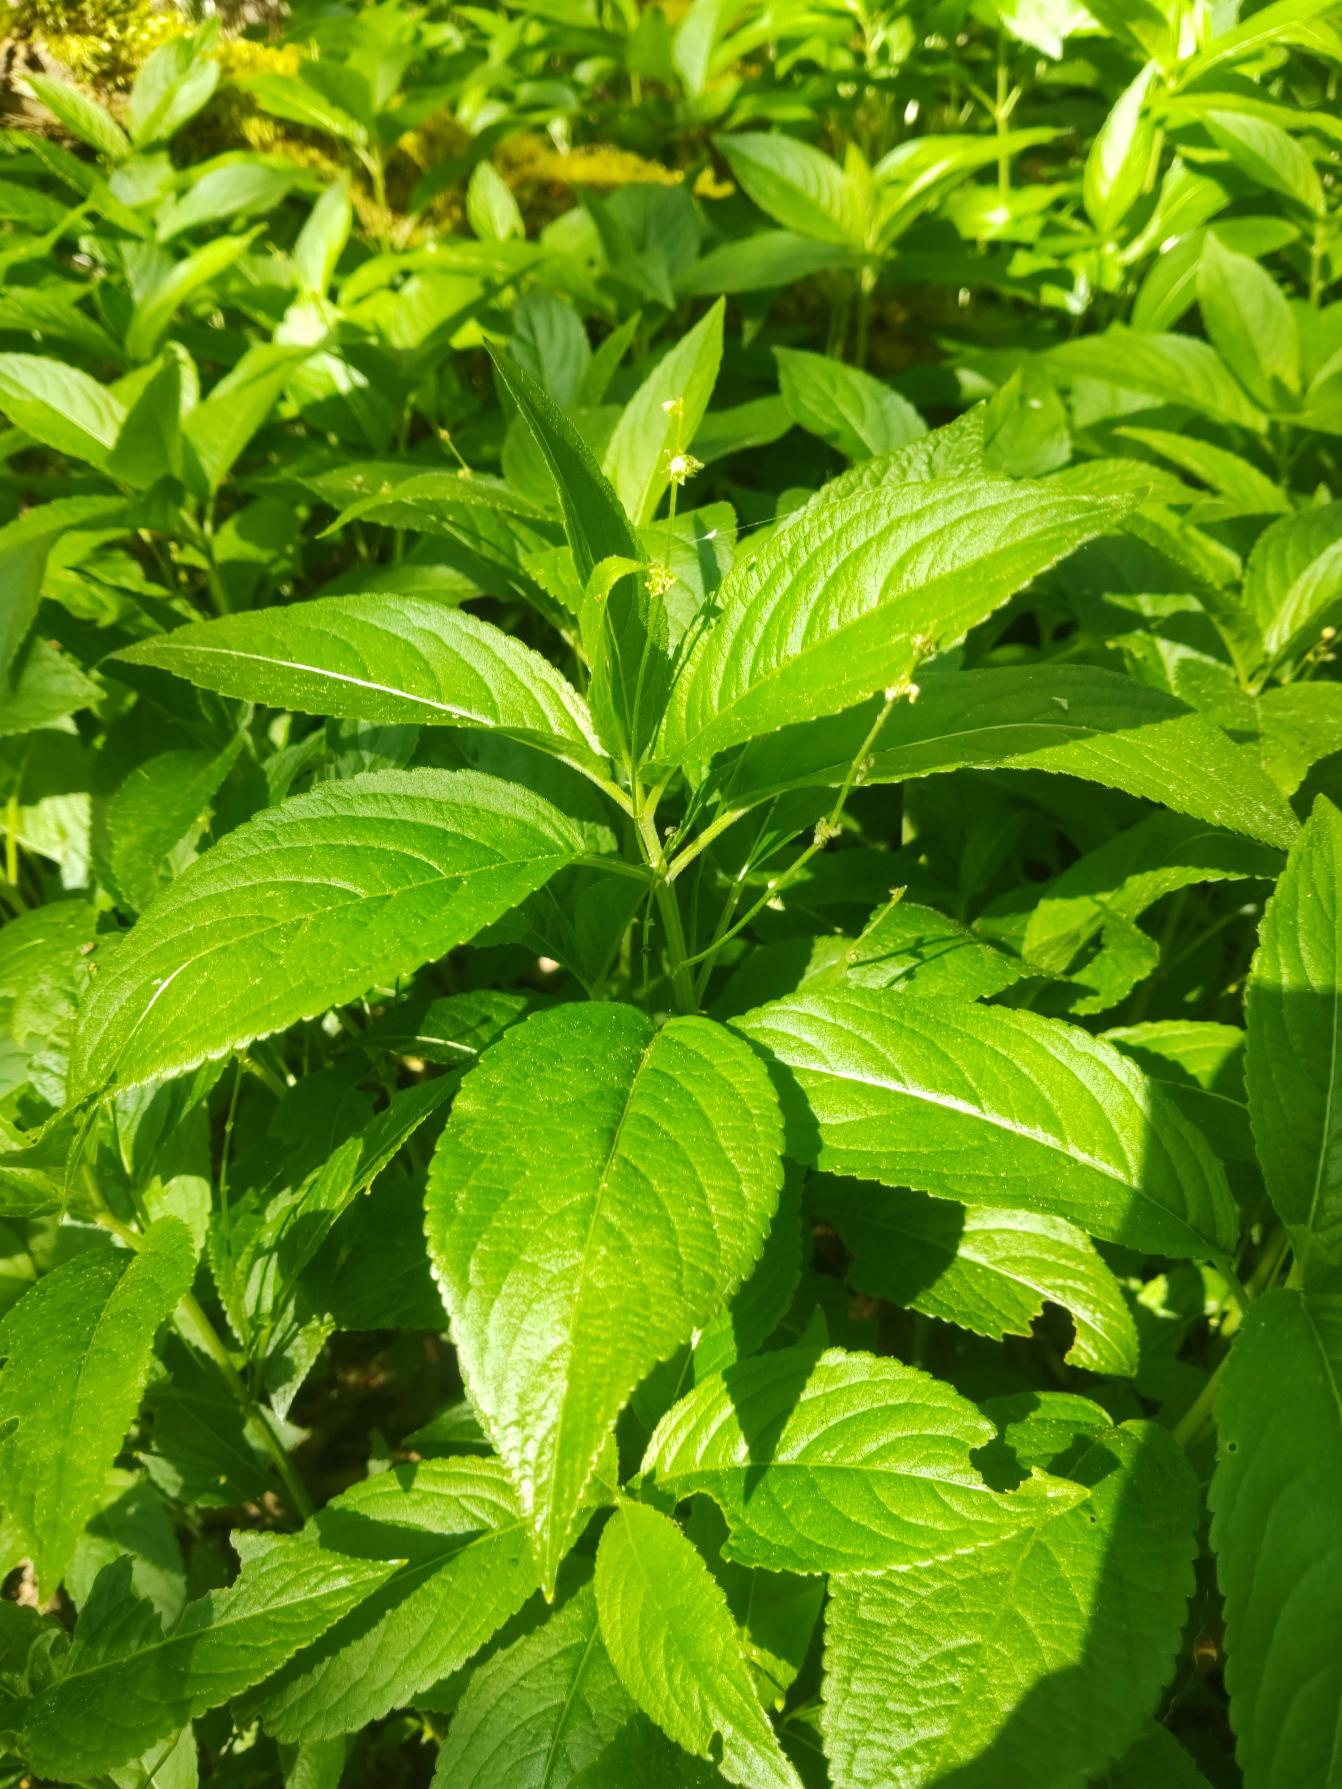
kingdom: Plantae
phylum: Tracheophyta
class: Magnoliopsida
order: Malpighiales
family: Euphorbiaceae
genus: Mercurialis
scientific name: Mercurialis perennis
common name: Almindelig bingelurt
